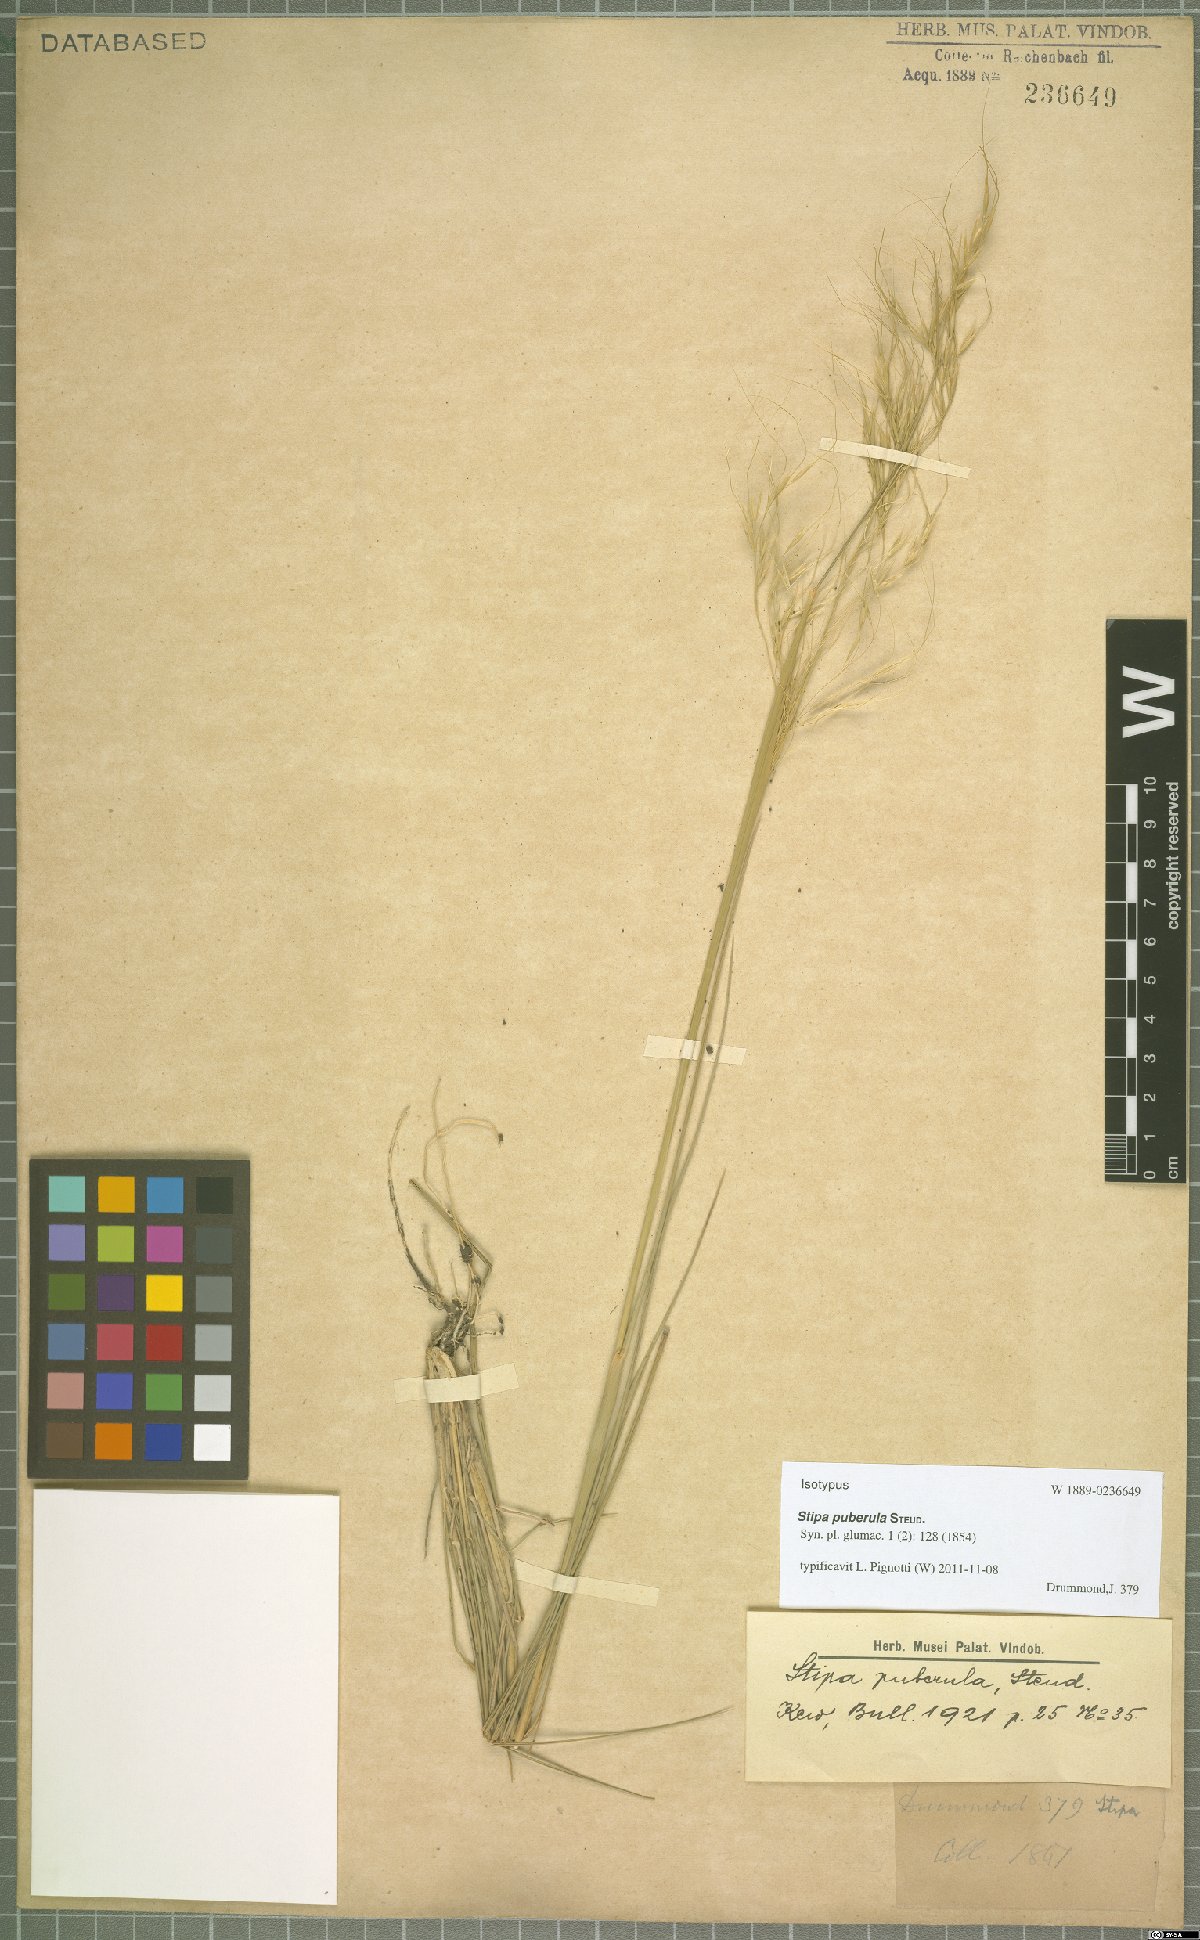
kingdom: Plantae
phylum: Tracheophyta
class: Liliopsida
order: Poales
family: Poaceae
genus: Austrostipa
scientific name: Austrostipa puberula
